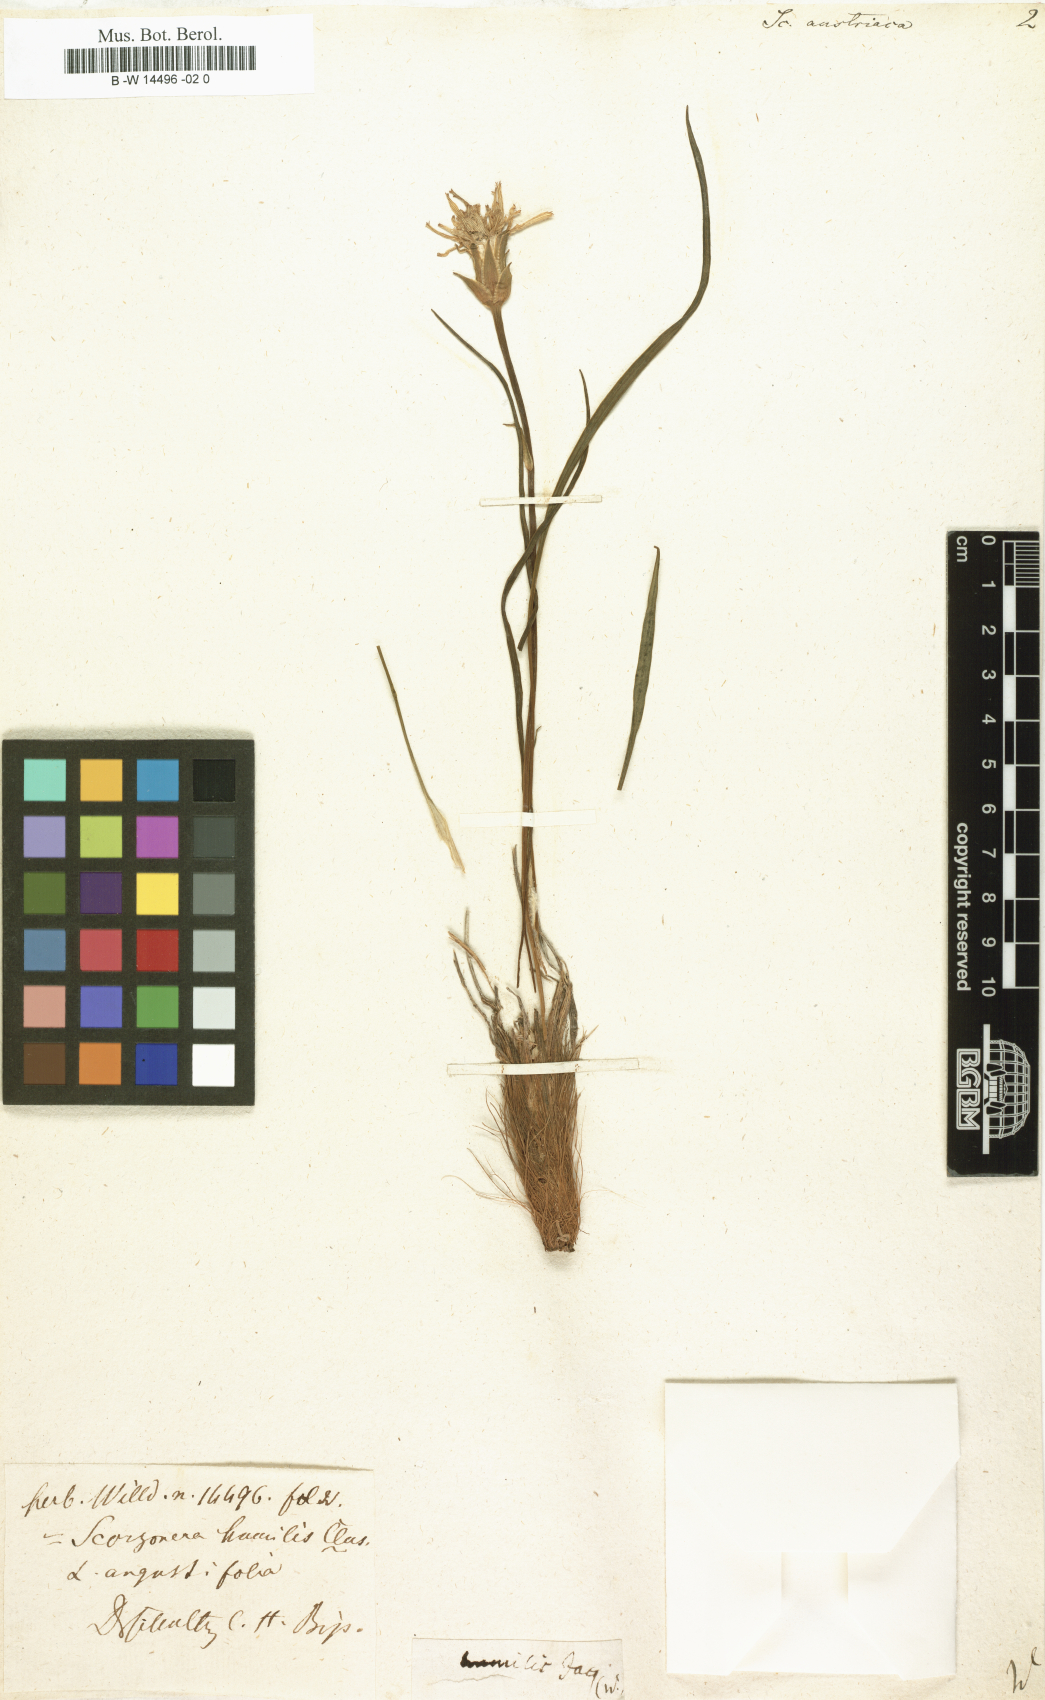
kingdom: Plantae
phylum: Tracheophyta
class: Magnoliopsida
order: Asterales
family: Asteraceae
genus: Scorzonera
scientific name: Scorzonera austriaca
